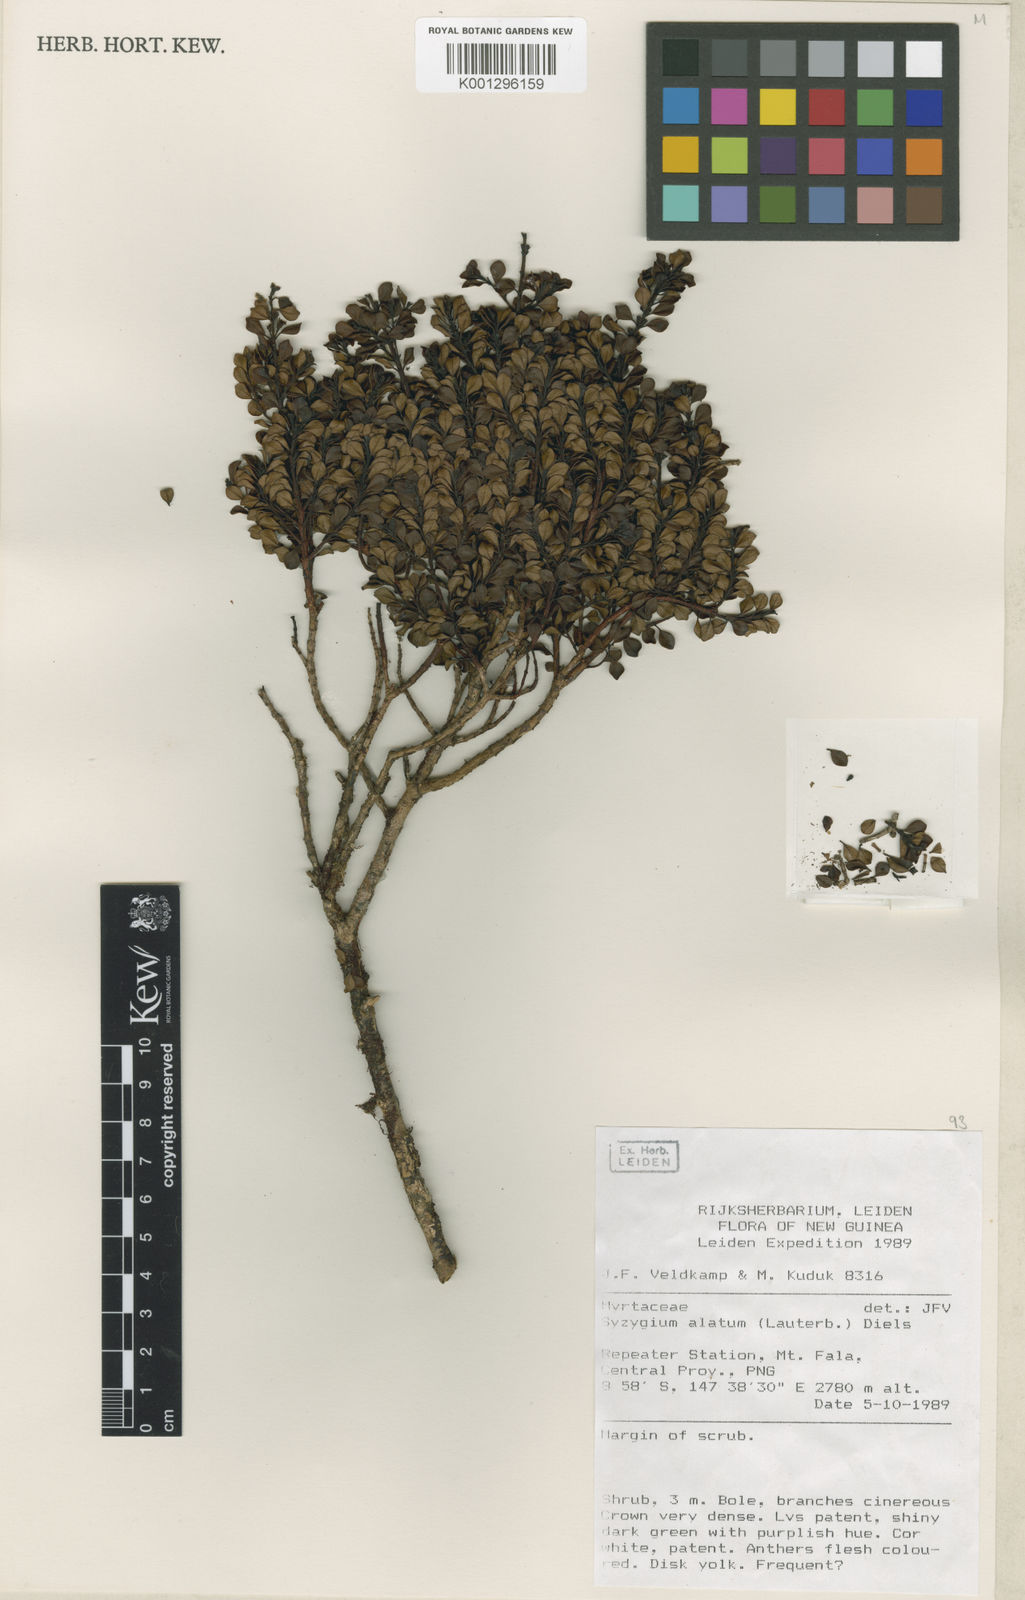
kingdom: Plantae
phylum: Tracheophyta
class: Magnoliopsida
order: Myrtales
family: Myrtaceae
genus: Syzygium
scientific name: Syzygium alatum
